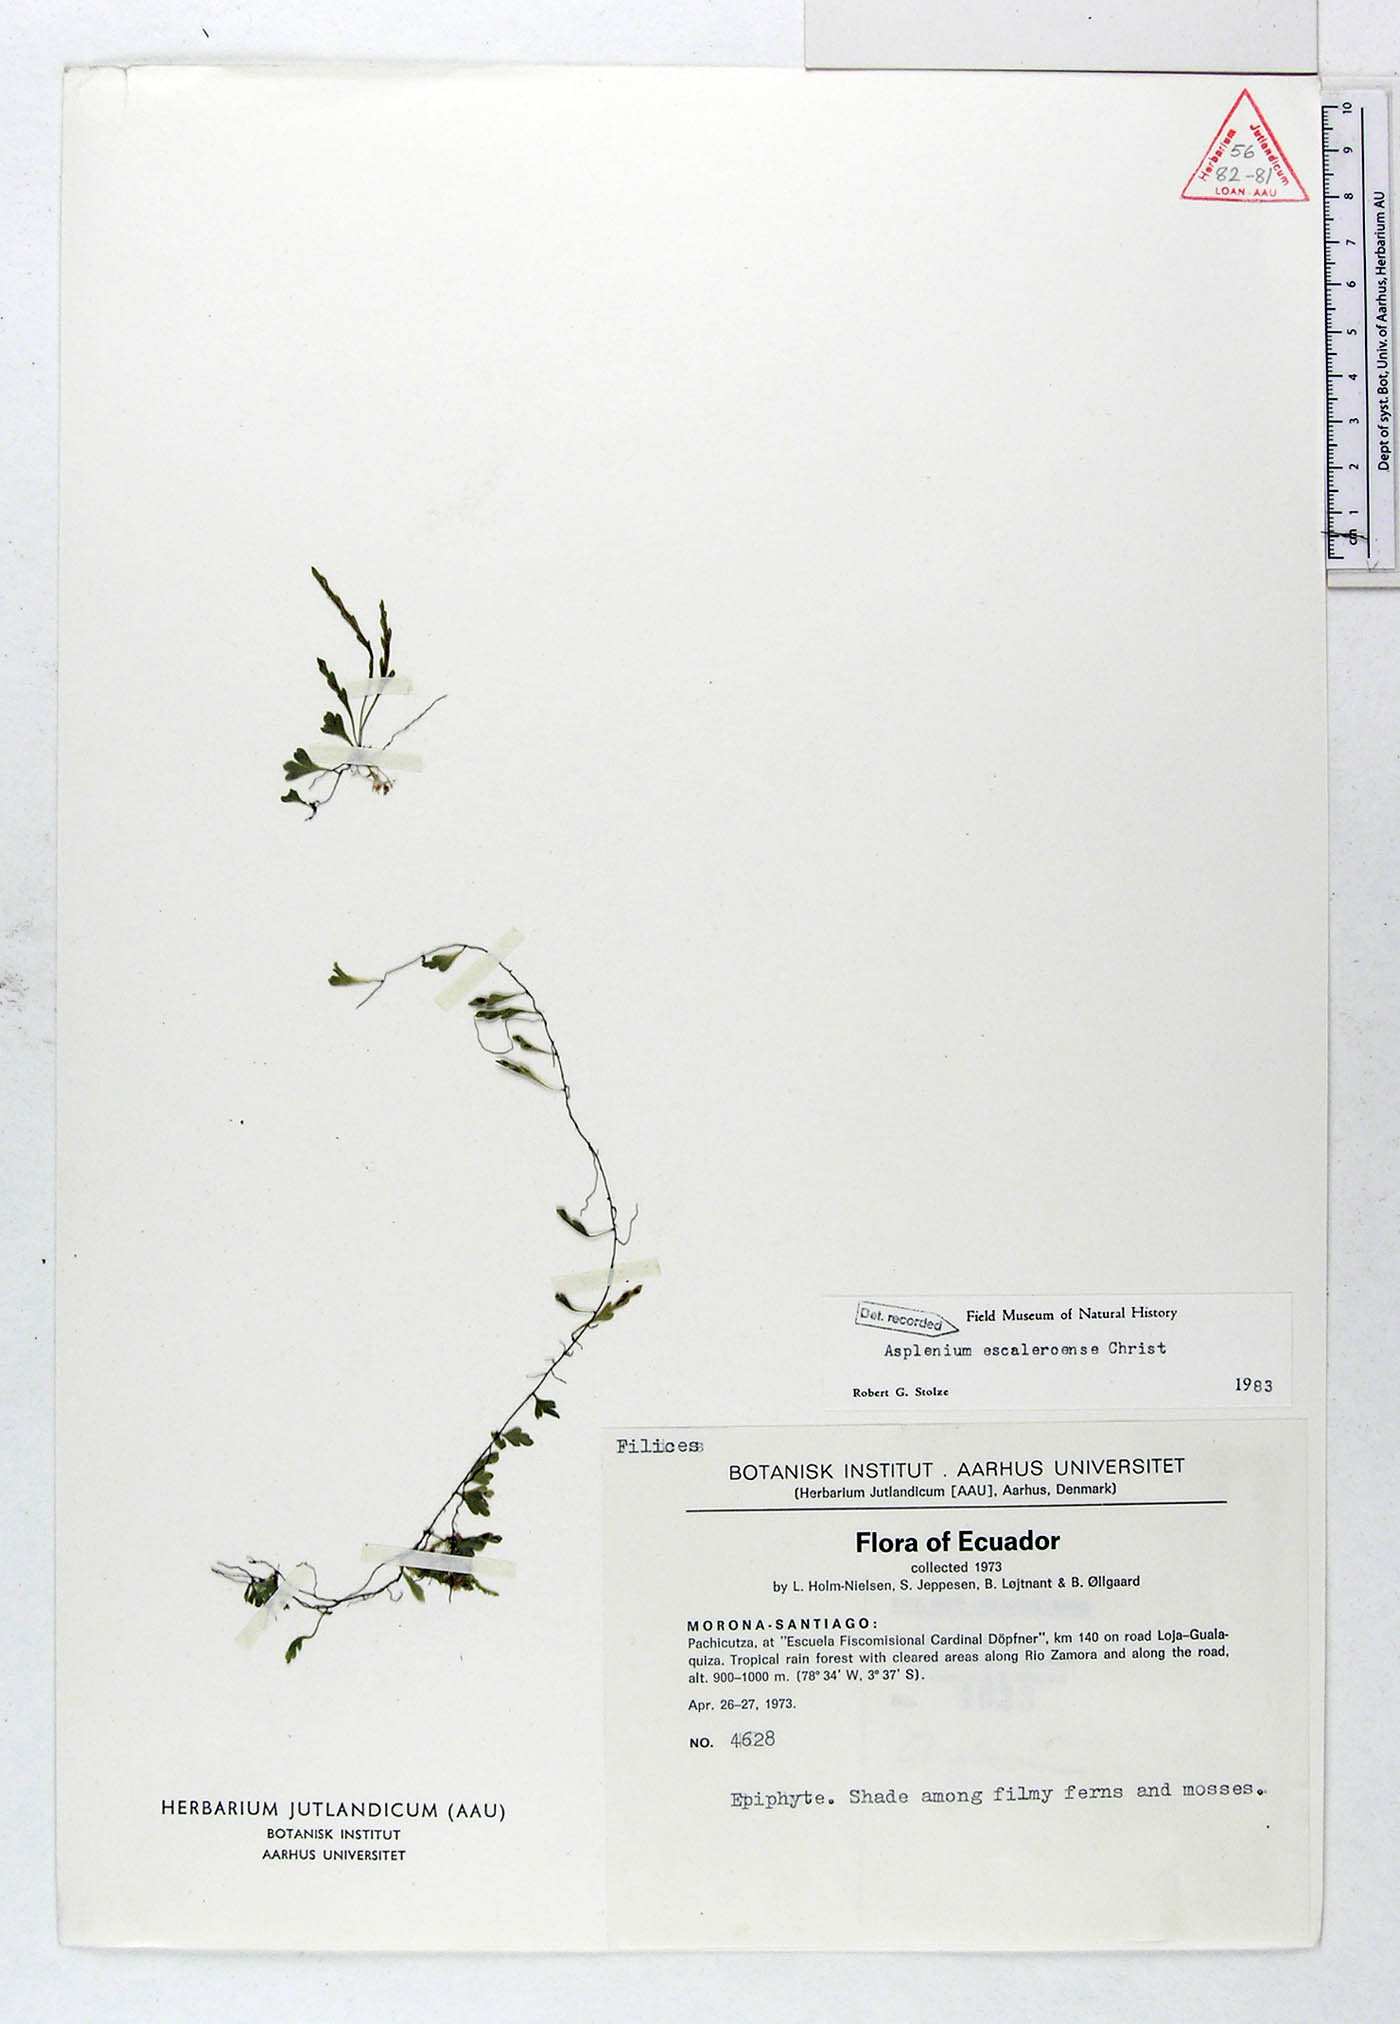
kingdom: Plantae
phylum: Tracheophyta
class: Polypodiopsida
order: Polypodiales
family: Aspleniaceae
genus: Asplenium
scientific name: Asplenium escaleroense
